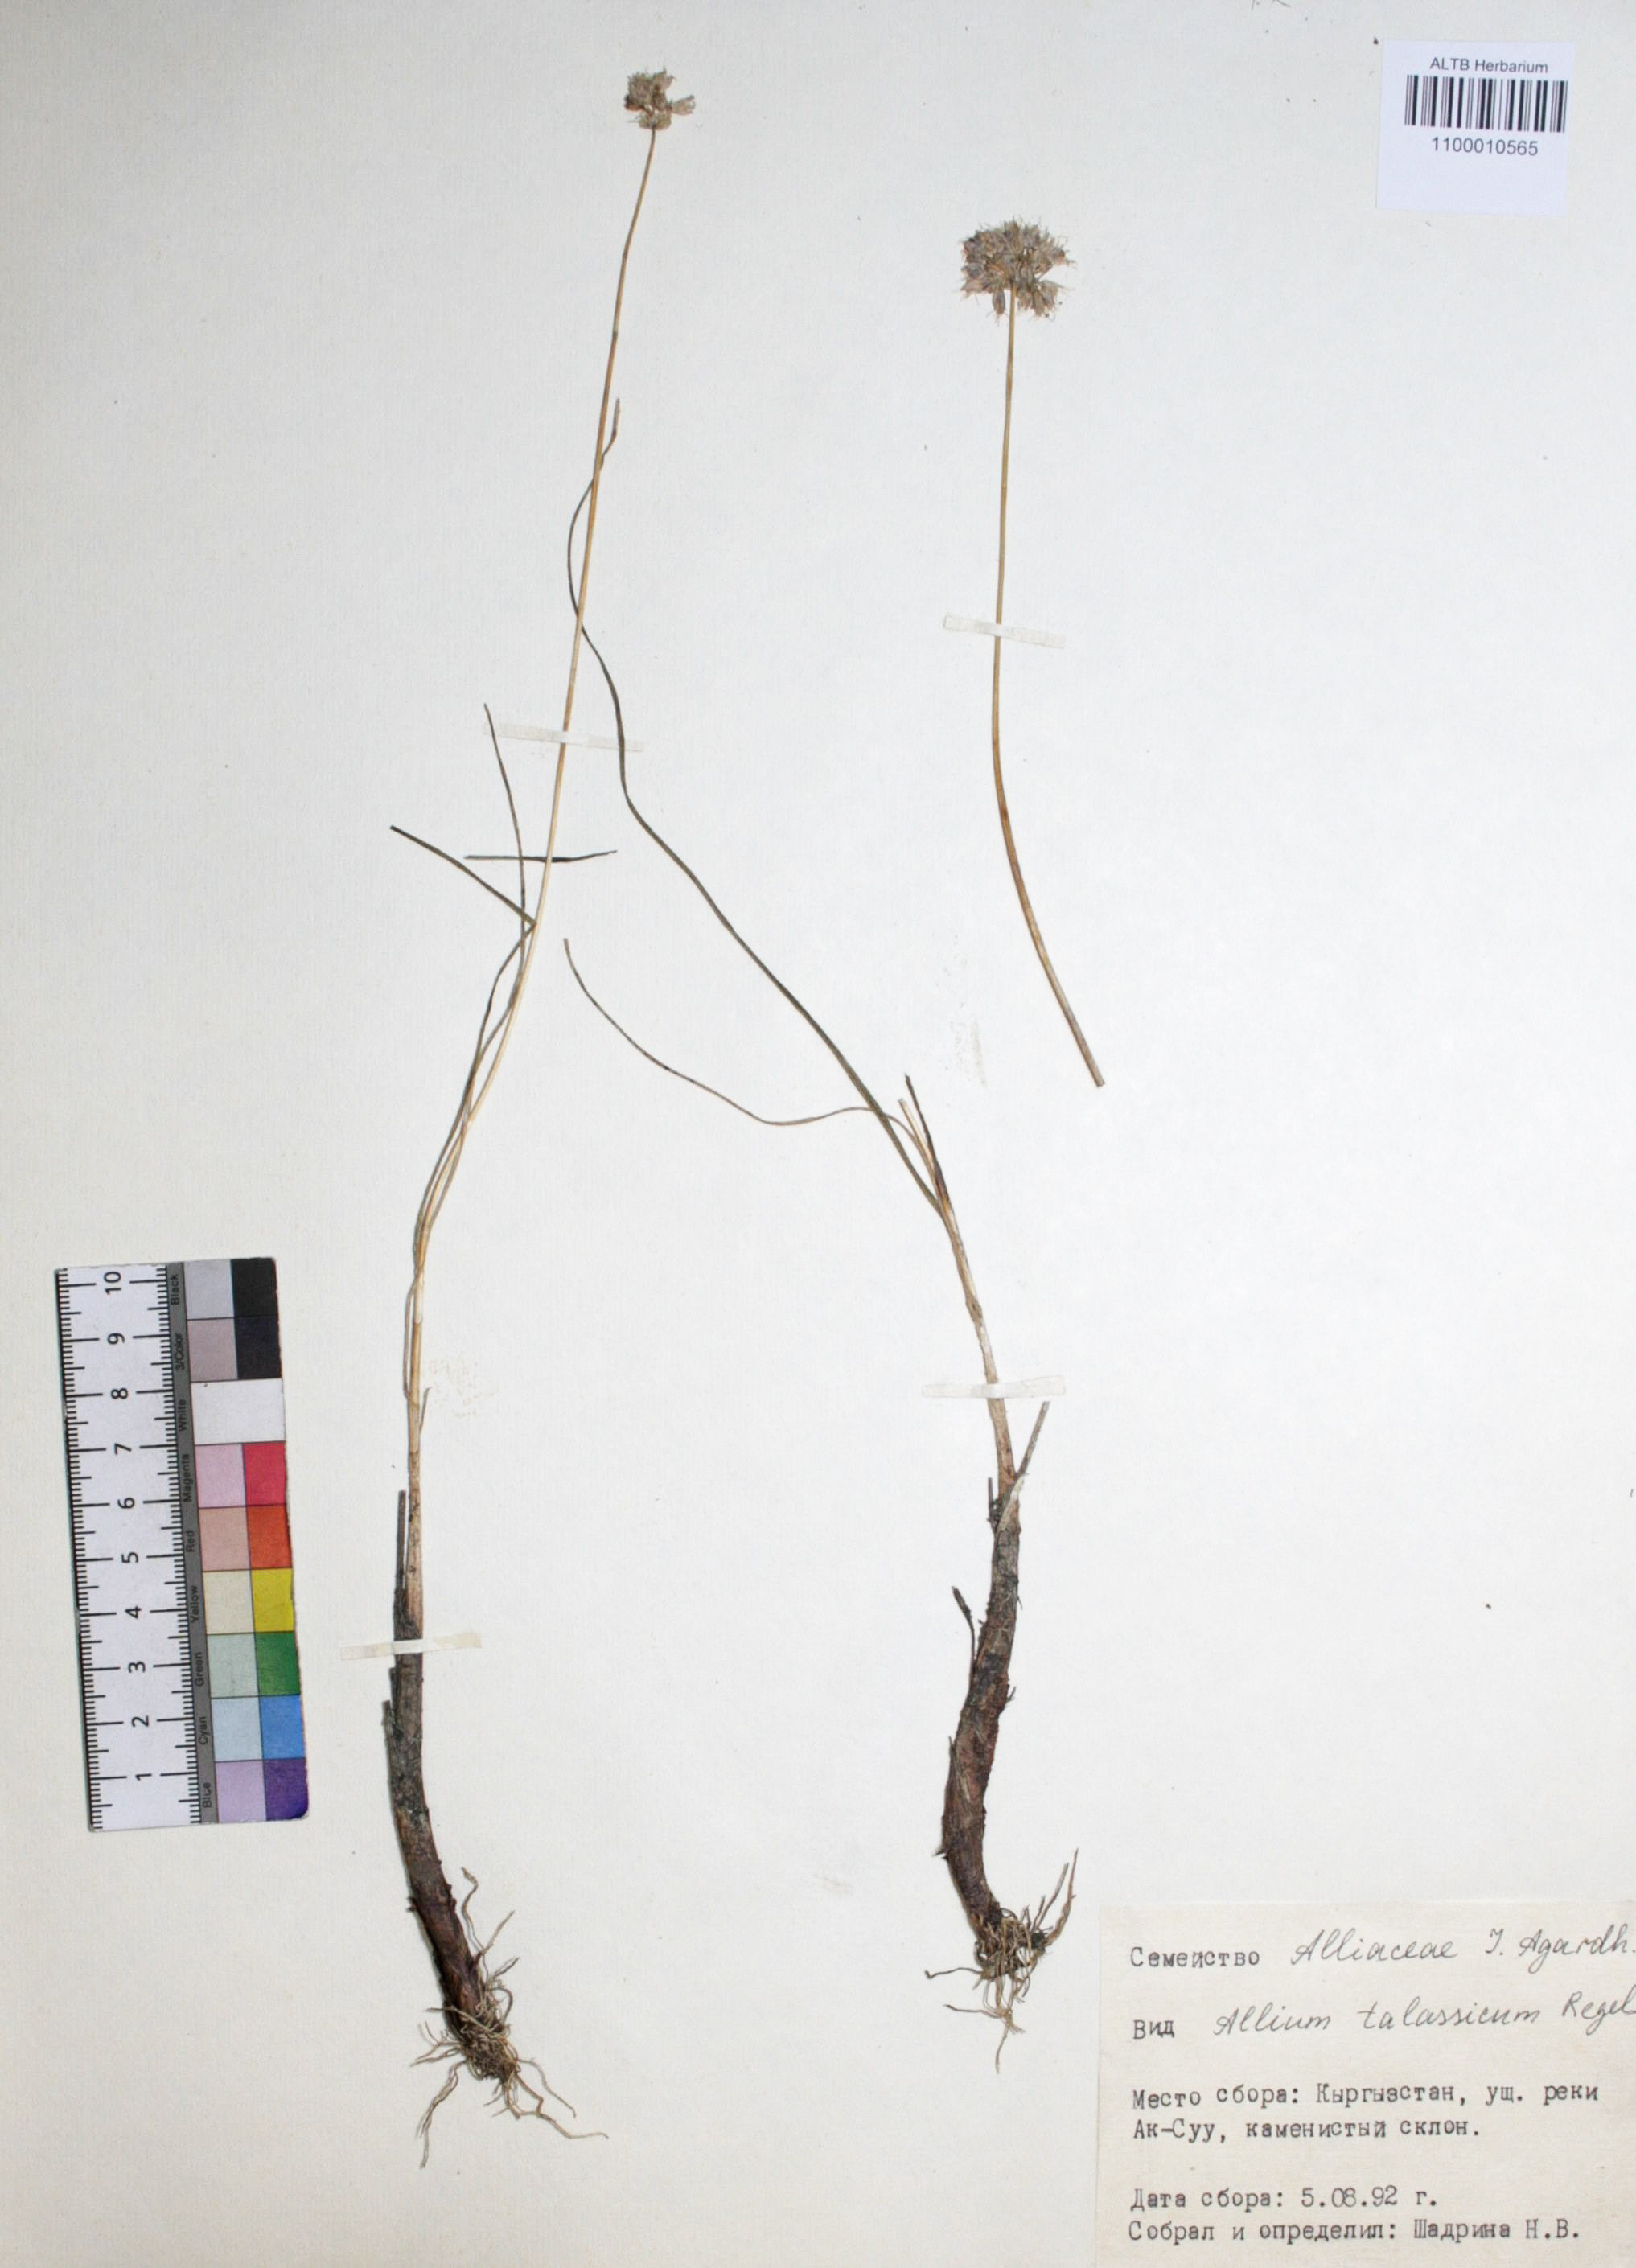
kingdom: Plantae
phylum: Tracheophyta
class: Liliopsida
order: Asparagales
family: Amaryllidaceae
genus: Allium
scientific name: Allium talassicum
